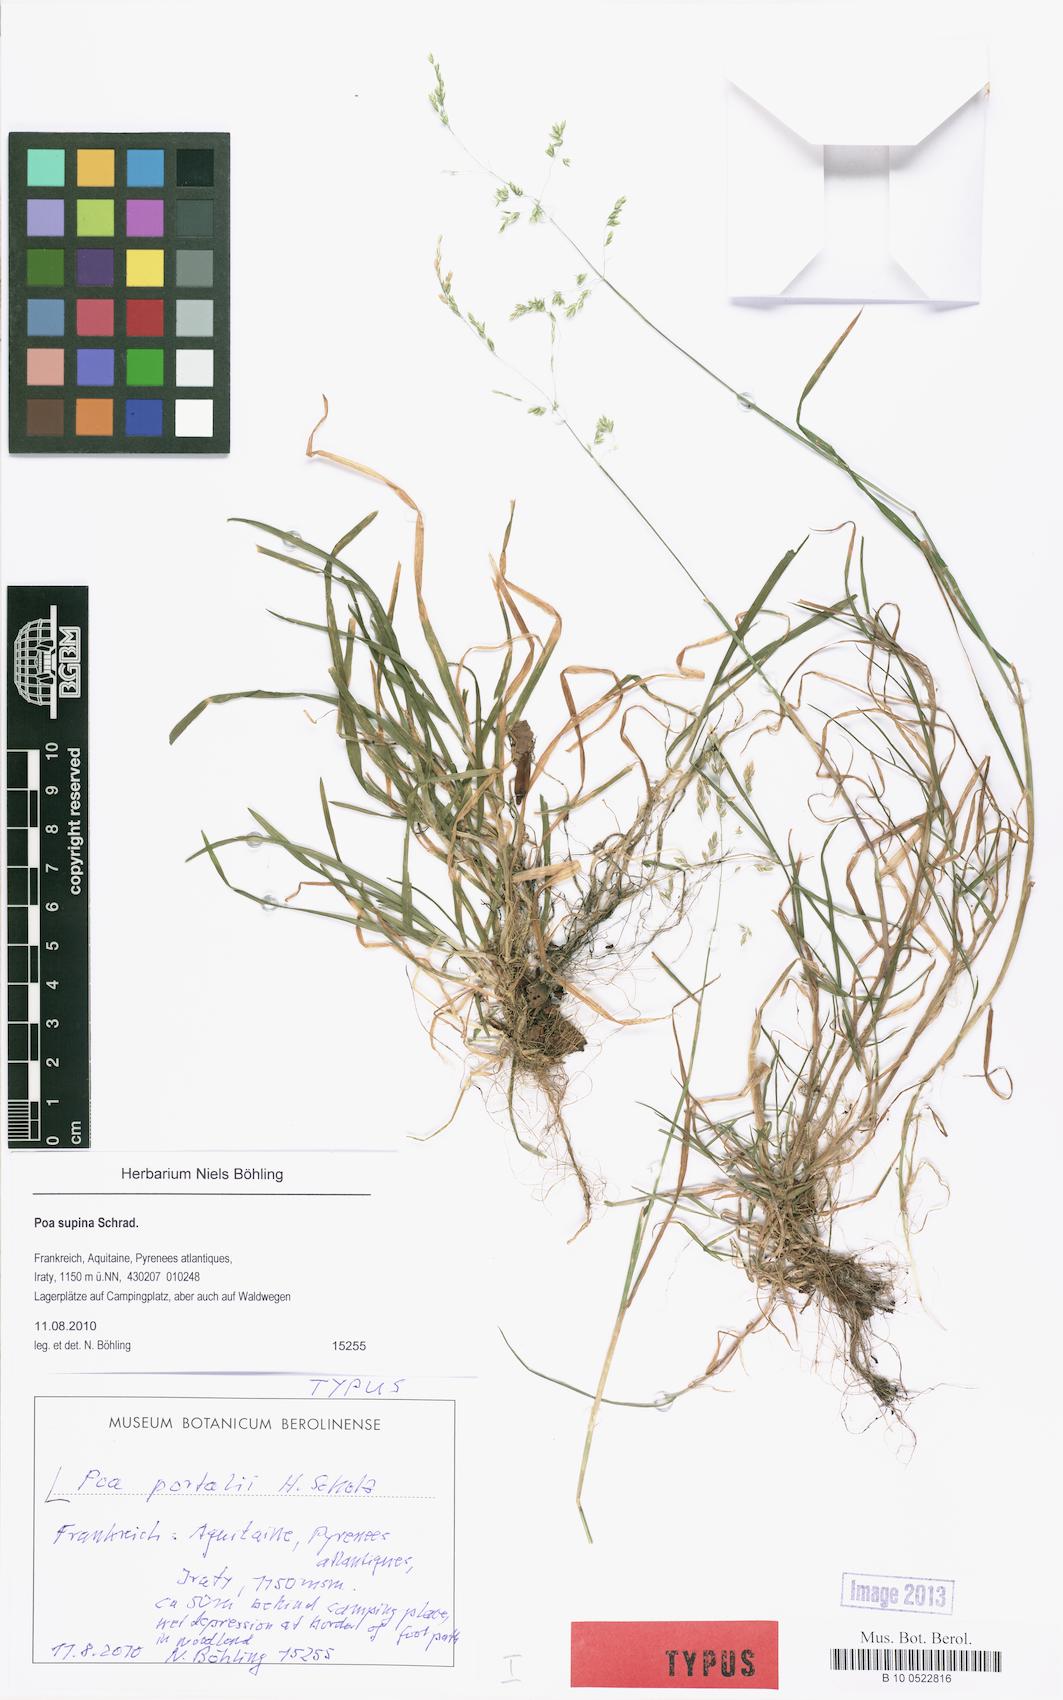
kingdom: Plantae
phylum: Tracheophyta
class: Liliopsida
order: Poales
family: Poaceae
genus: Poa
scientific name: Poa trivialis
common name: Rough bluegrass
